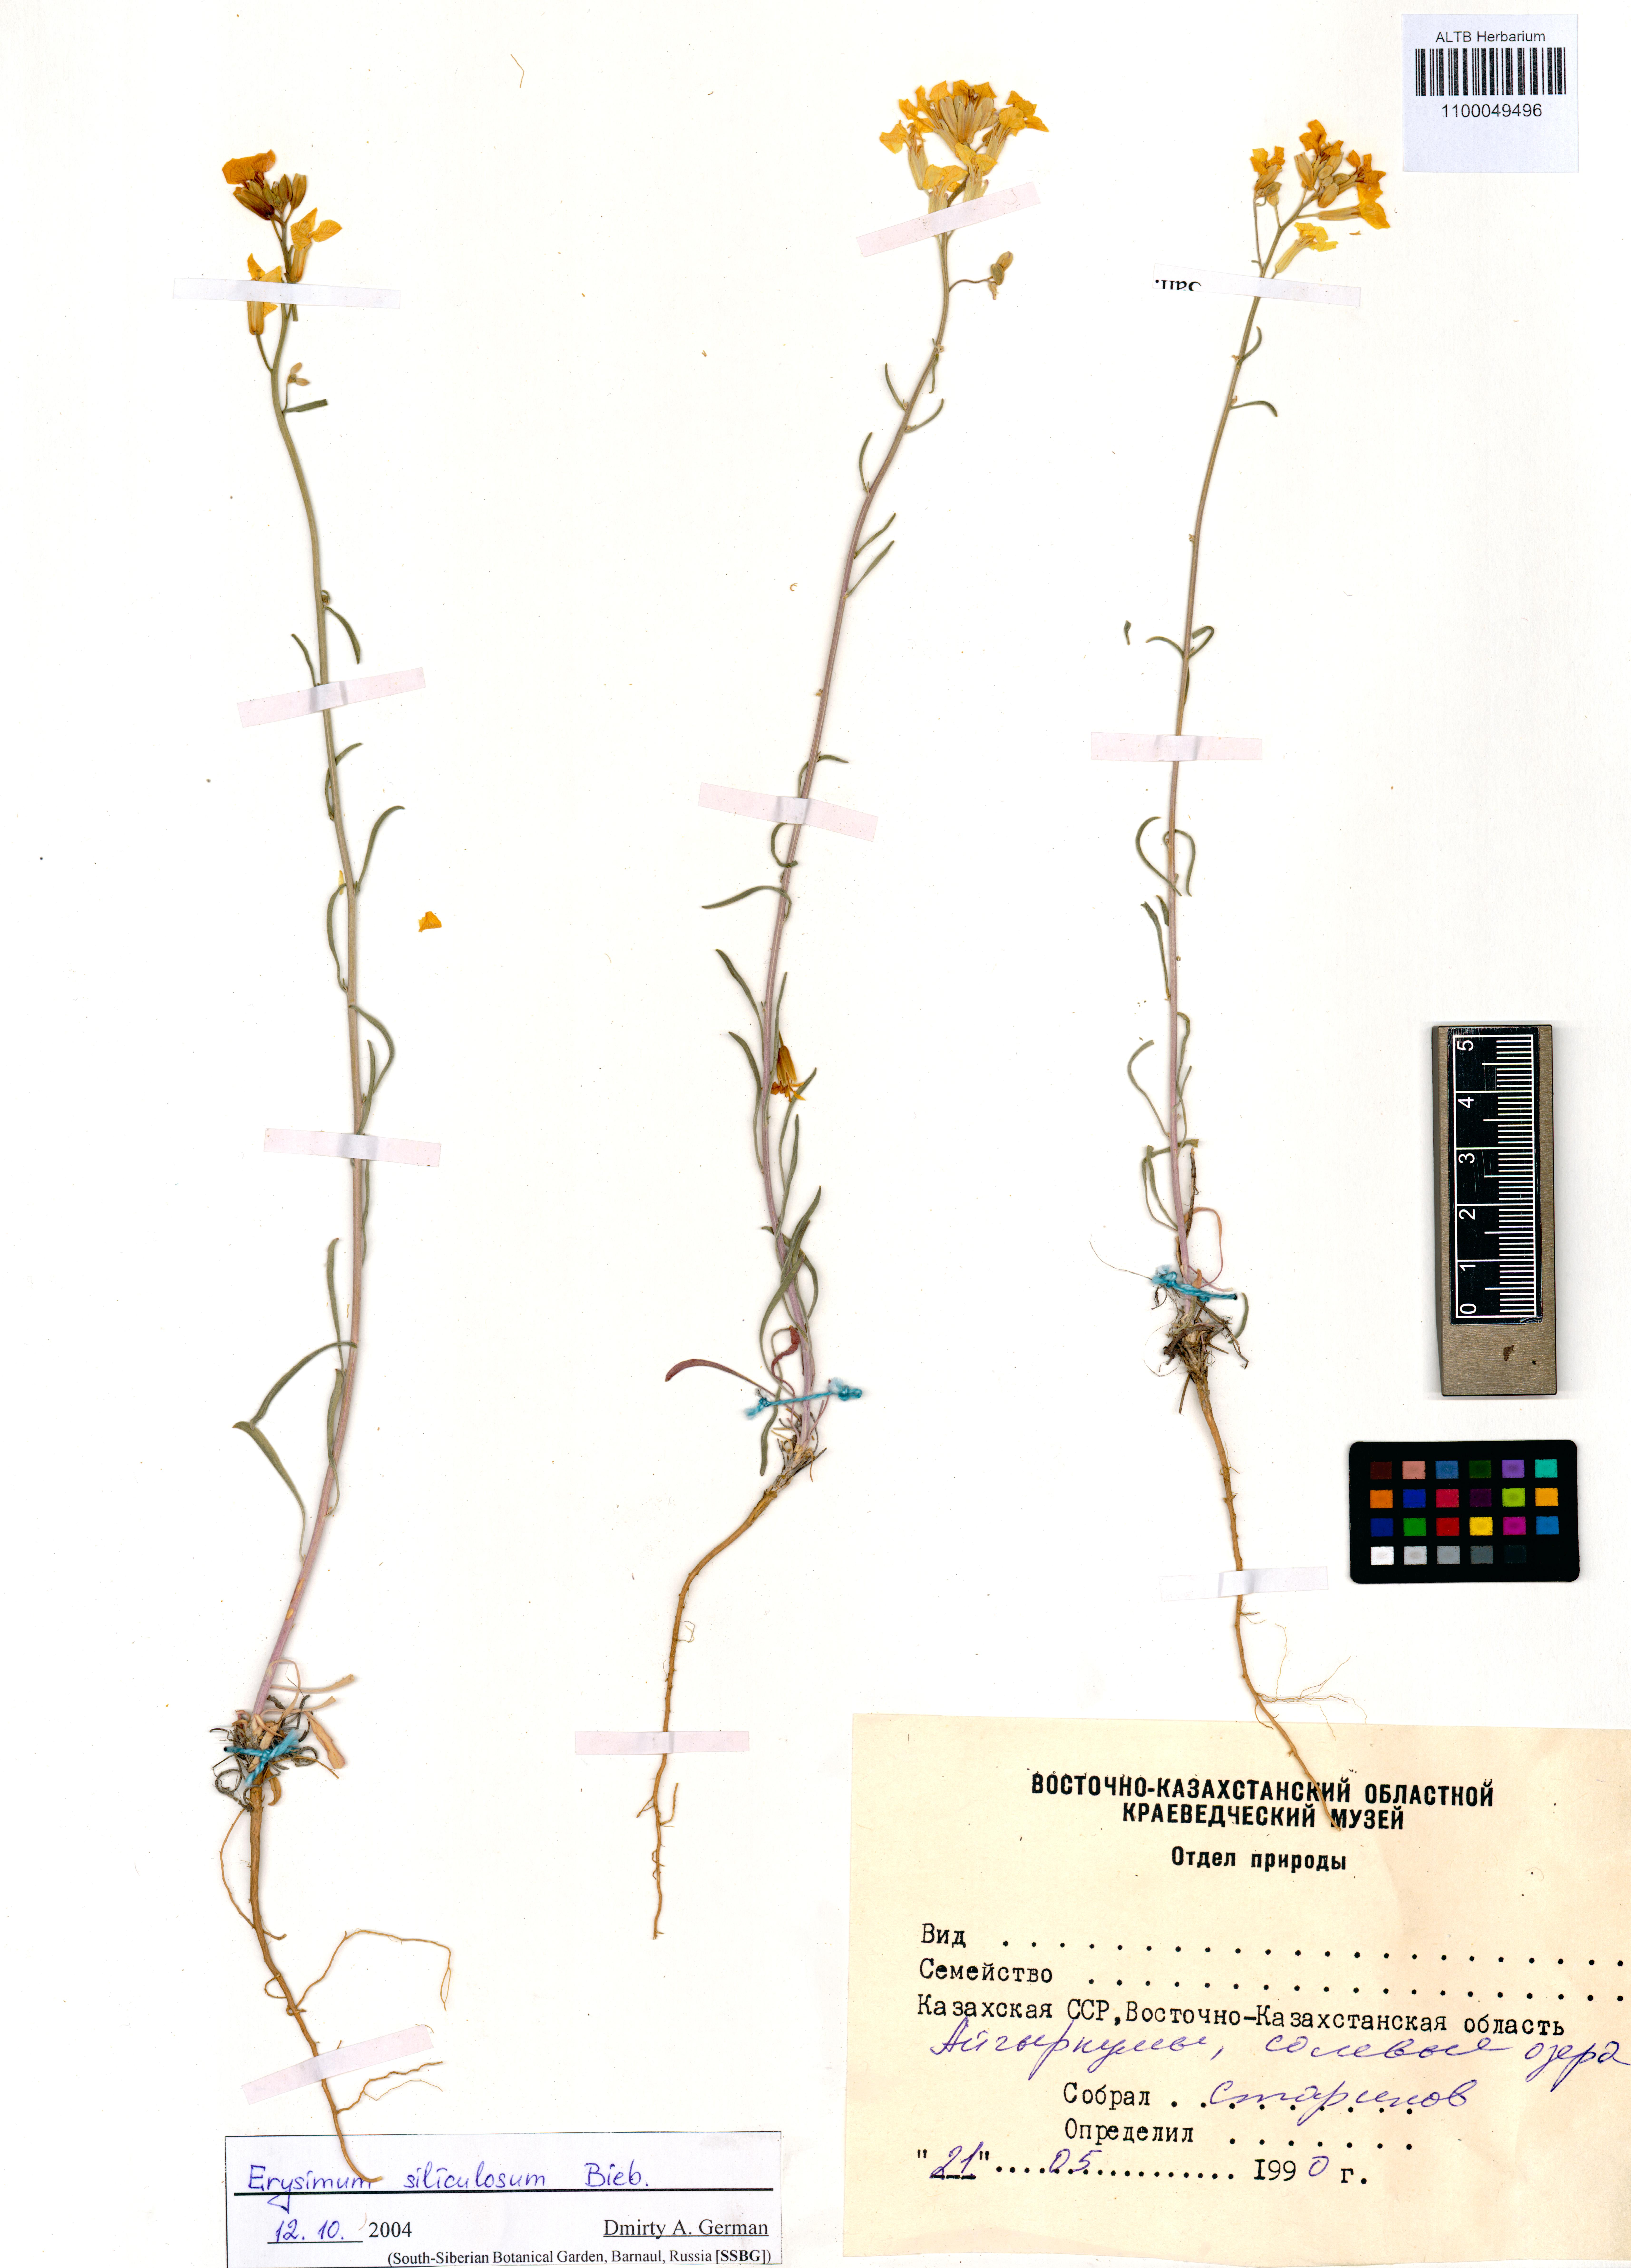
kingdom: Plantae
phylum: Tracheophyta
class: Magnoliopsida
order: Brassicales
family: Brassicaceae
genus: Erysimum
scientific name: Erysimum siliculosum
